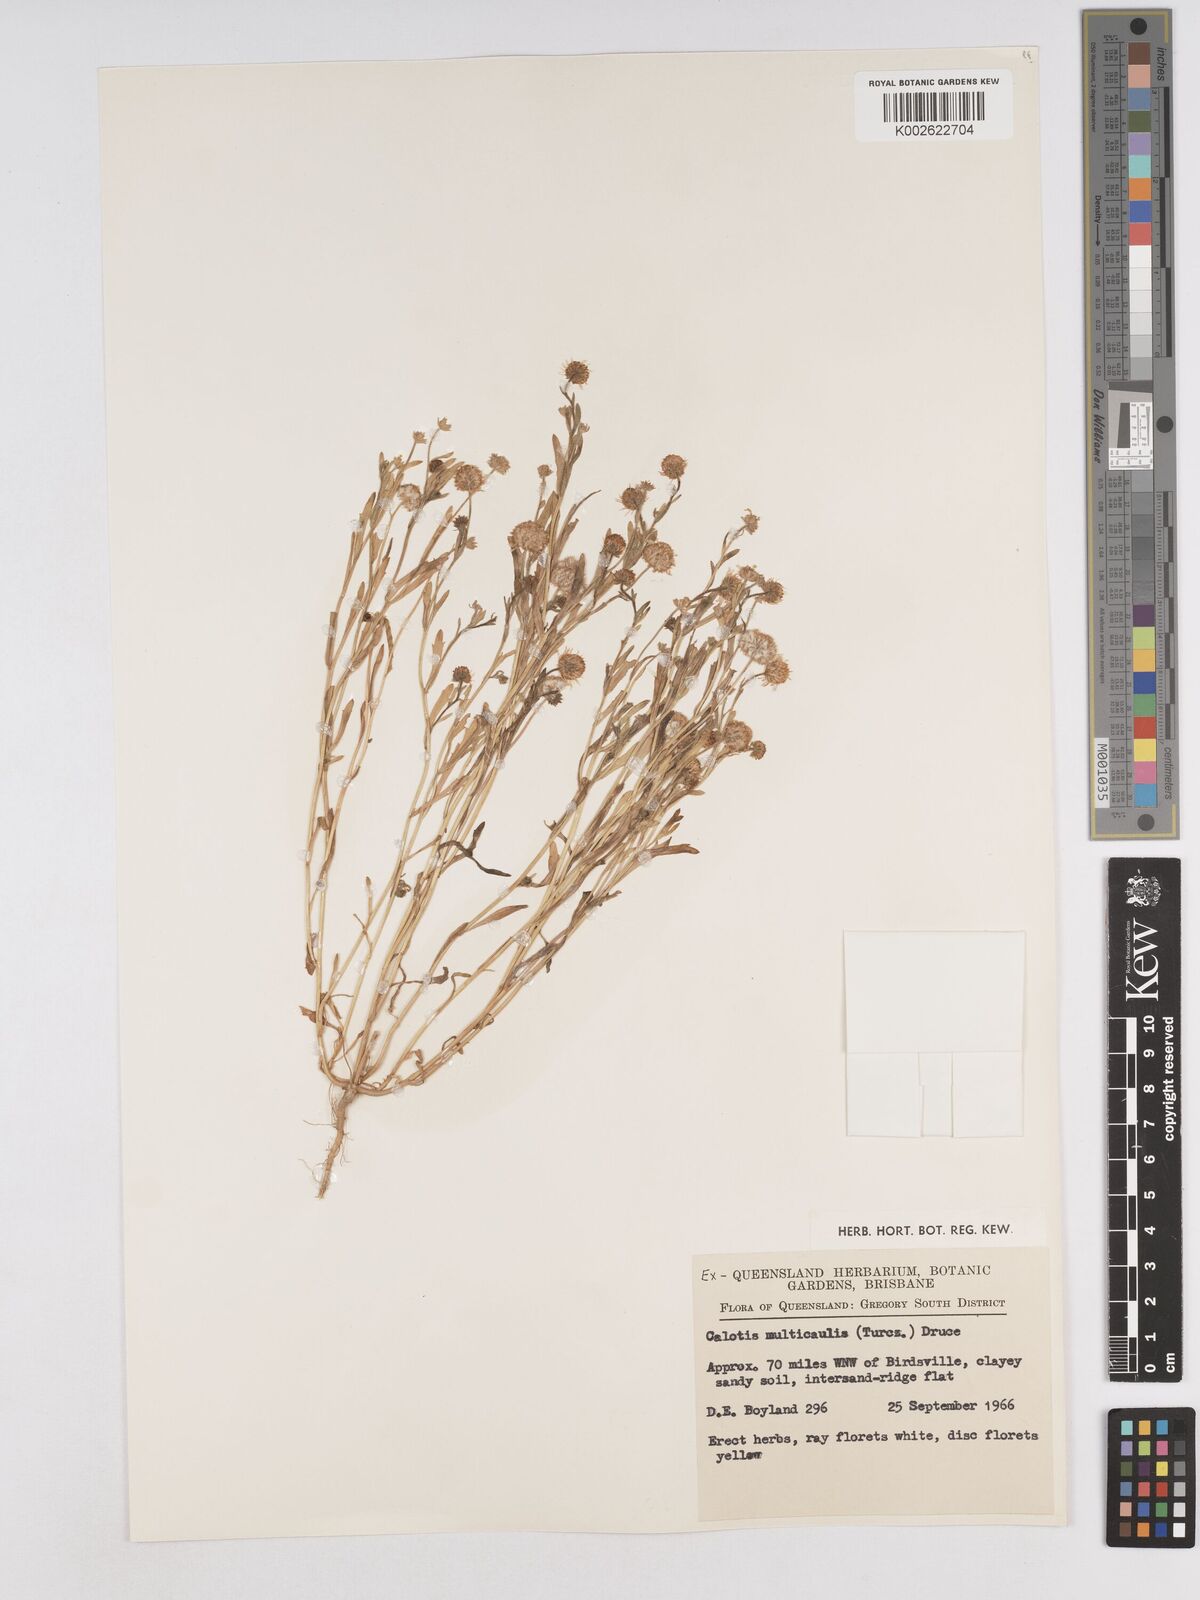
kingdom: Plantae
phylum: Tracheophyta
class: Magnoliopsida
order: Asterales
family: Asteraceae
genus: Calotis
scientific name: Calotis multicaulis
